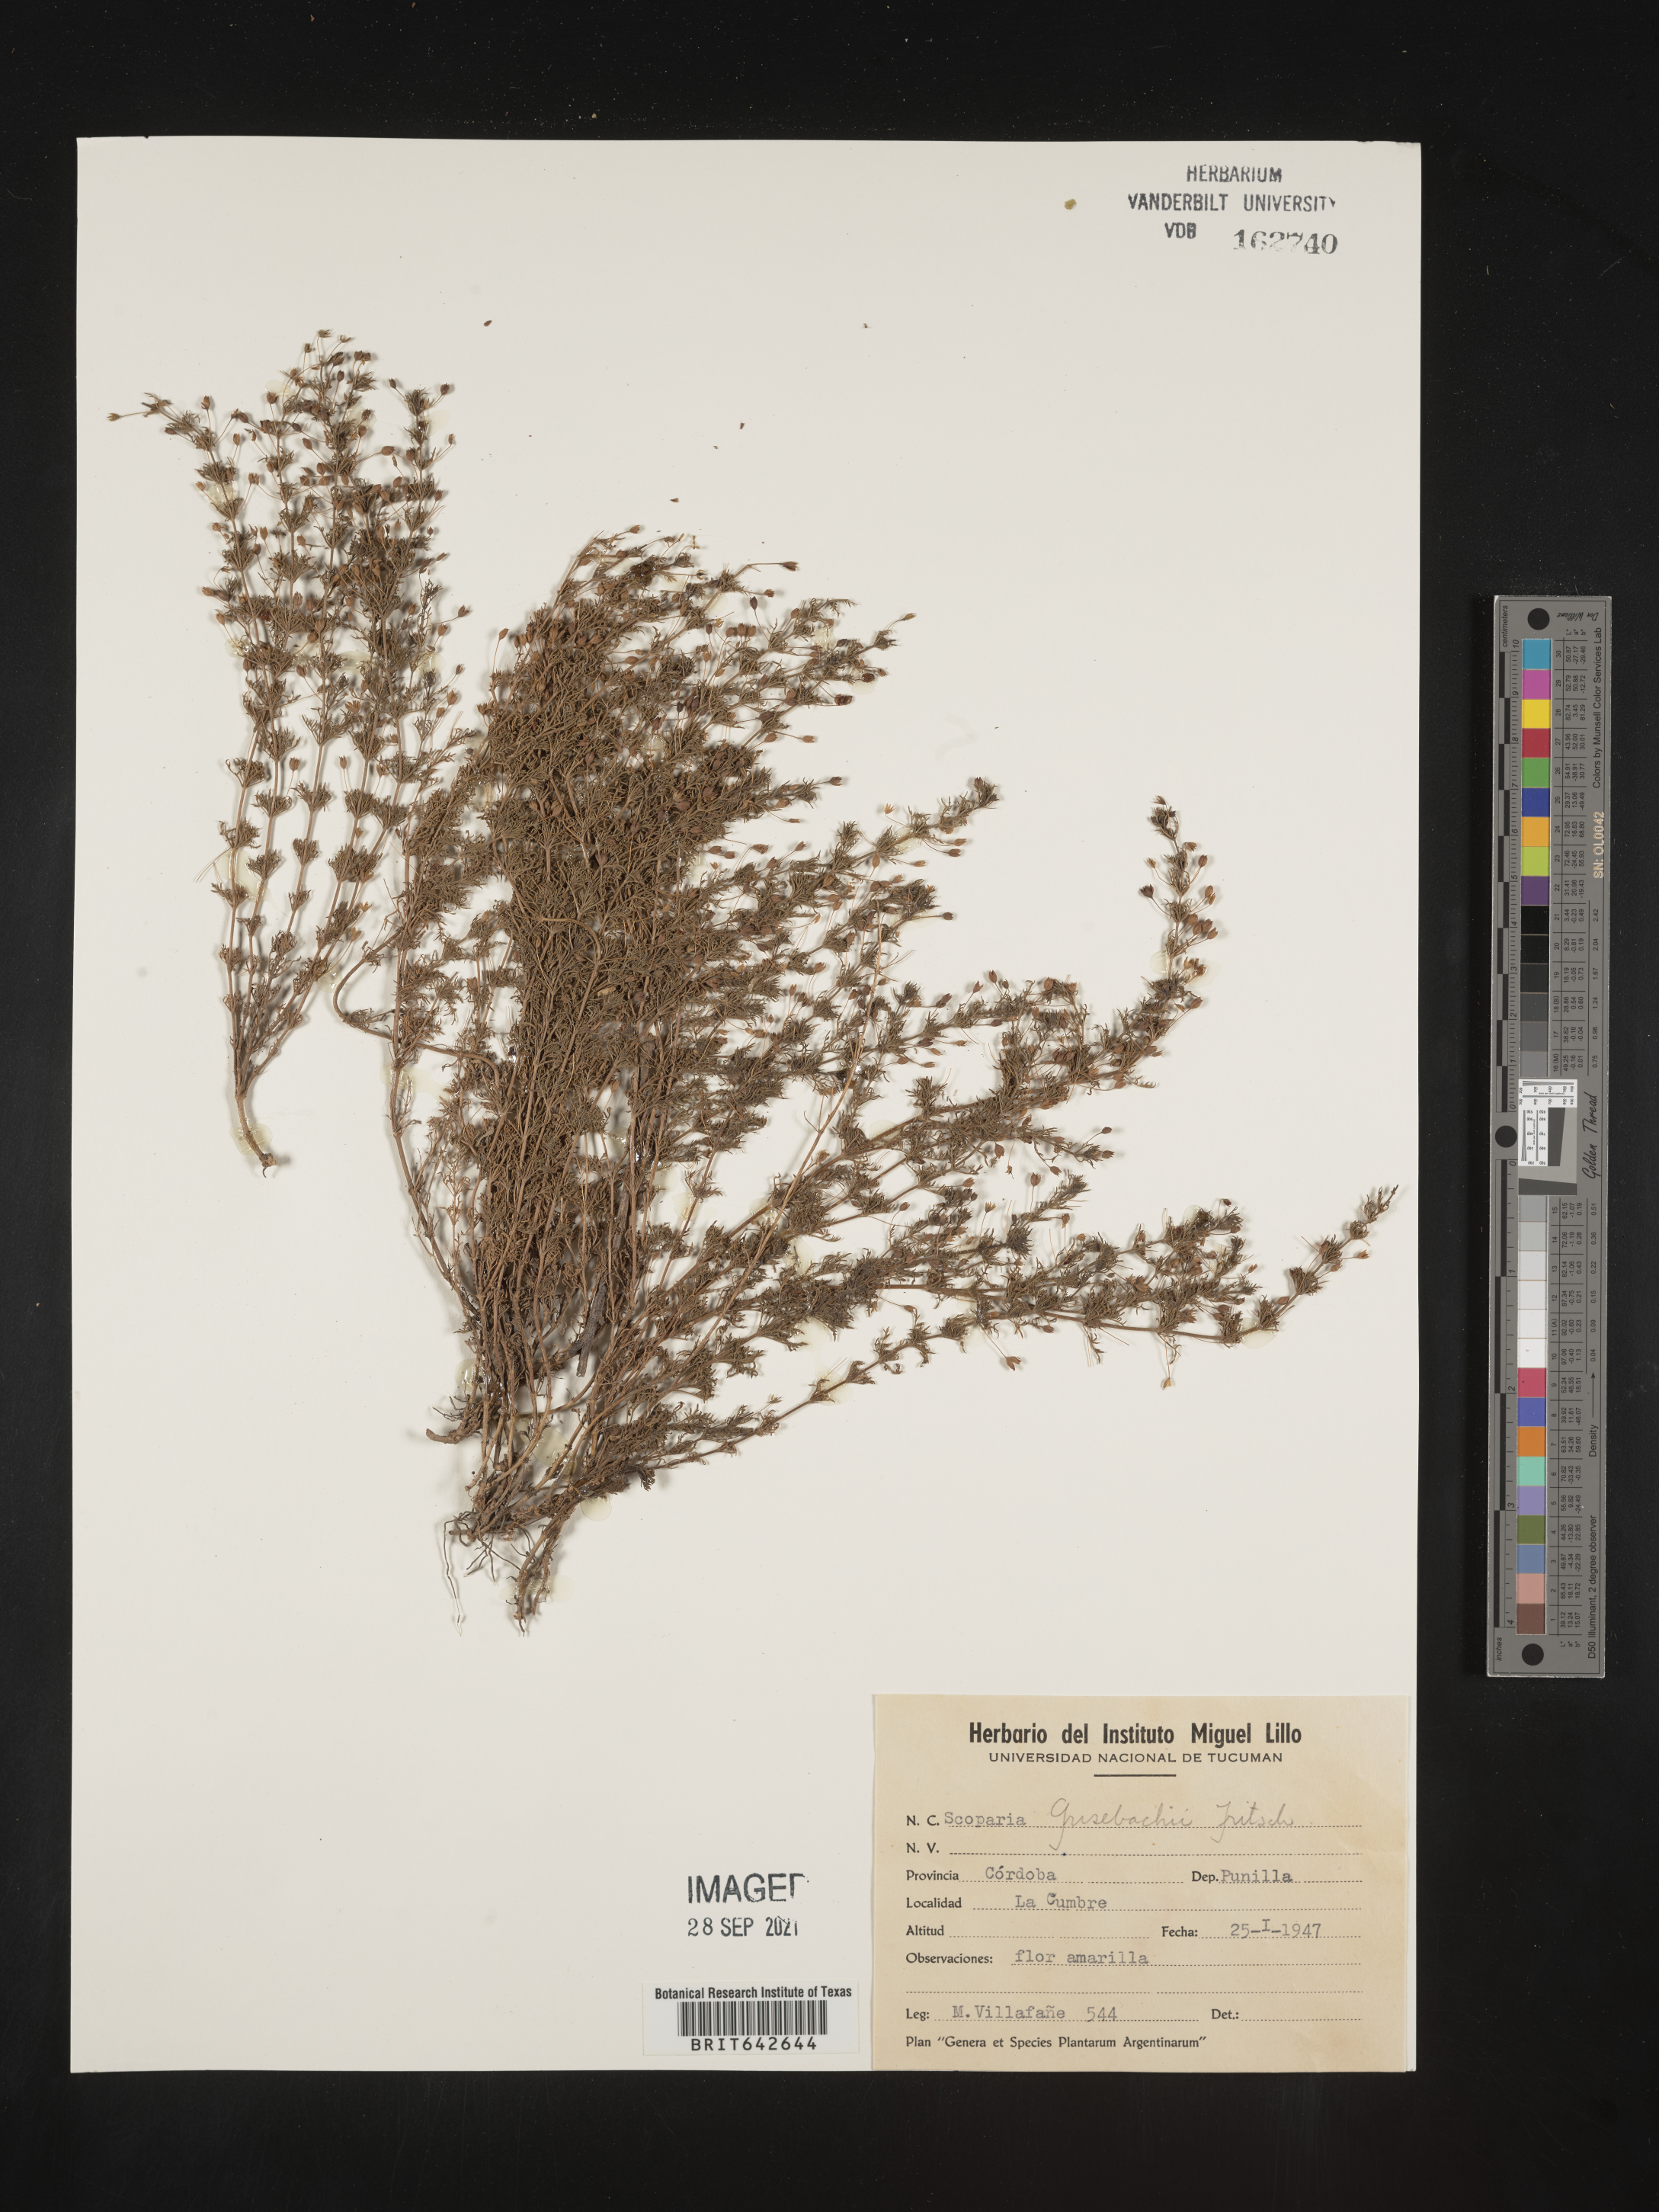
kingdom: Plantae
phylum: Tracheophyta
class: Magnoliopsida
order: Lamiales
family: Plantaginaceae
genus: Scoparia
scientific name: Scoparia
